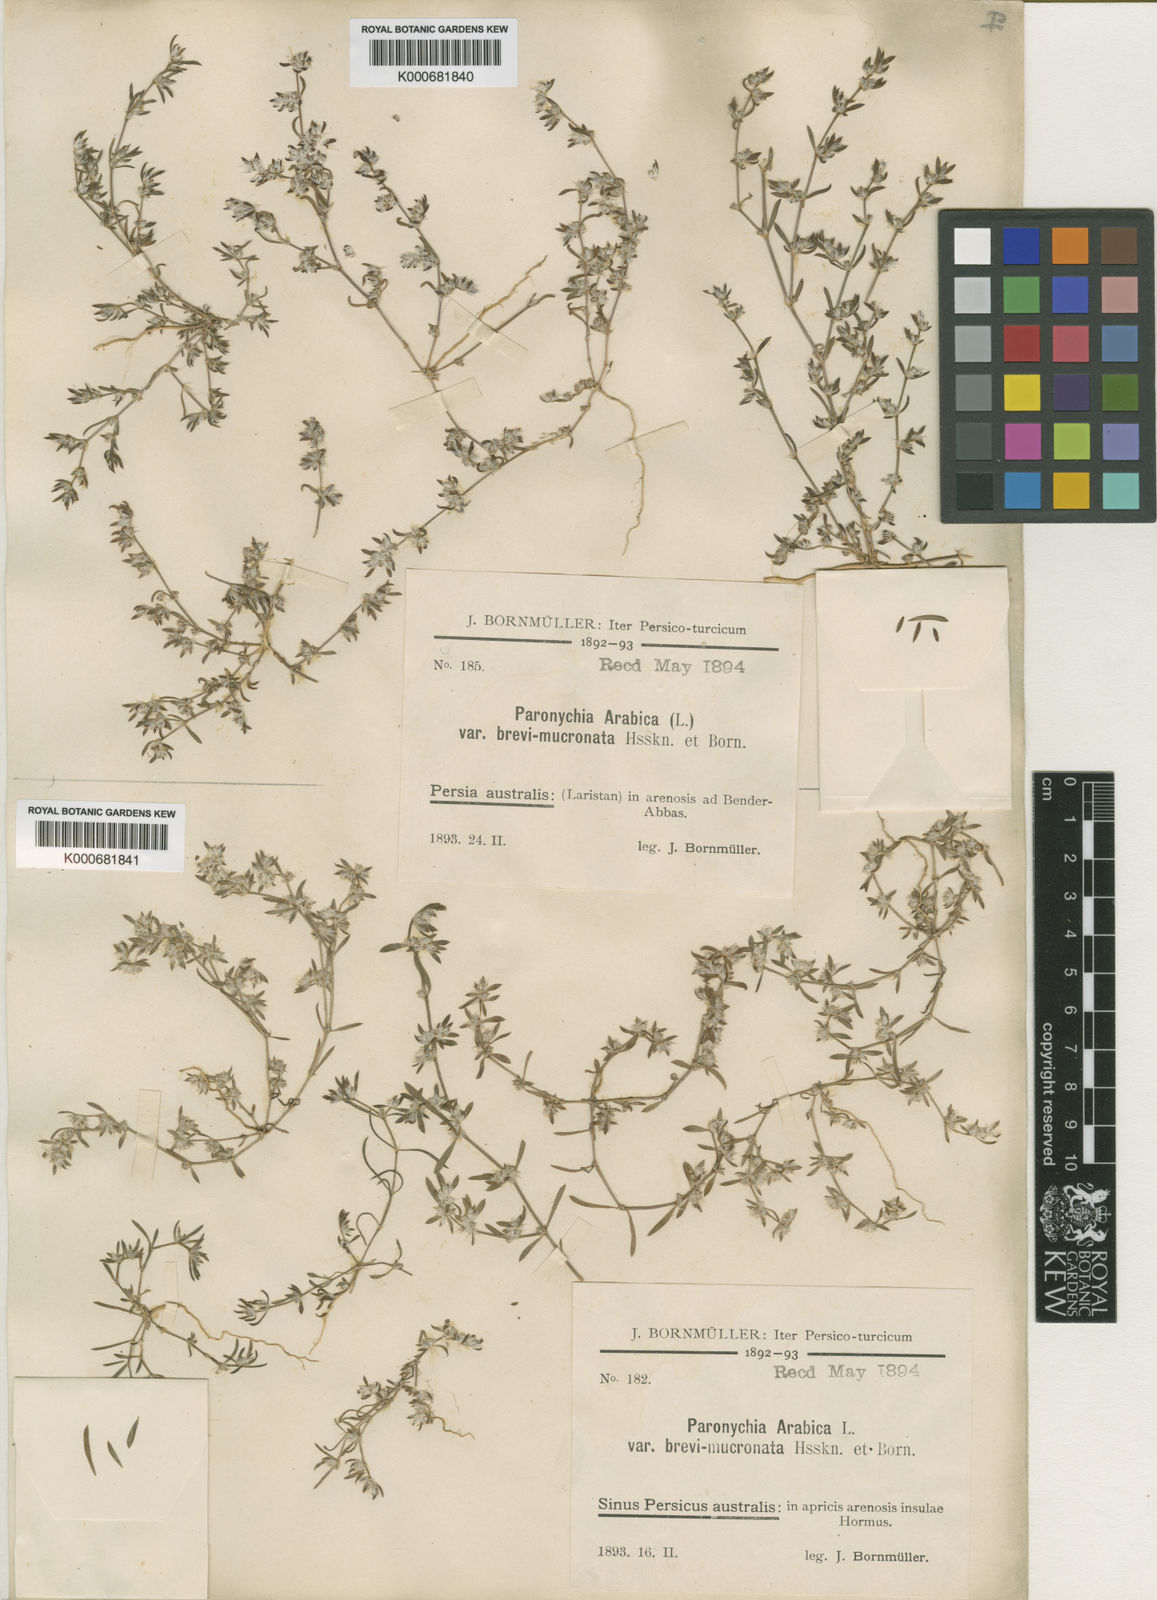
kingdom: Plantae
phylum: Tracheophyta
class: Magnoliopsida
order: Caryophyllales
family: Caryophyllaceae
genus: Paronychia
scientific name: Paronychia arabica
